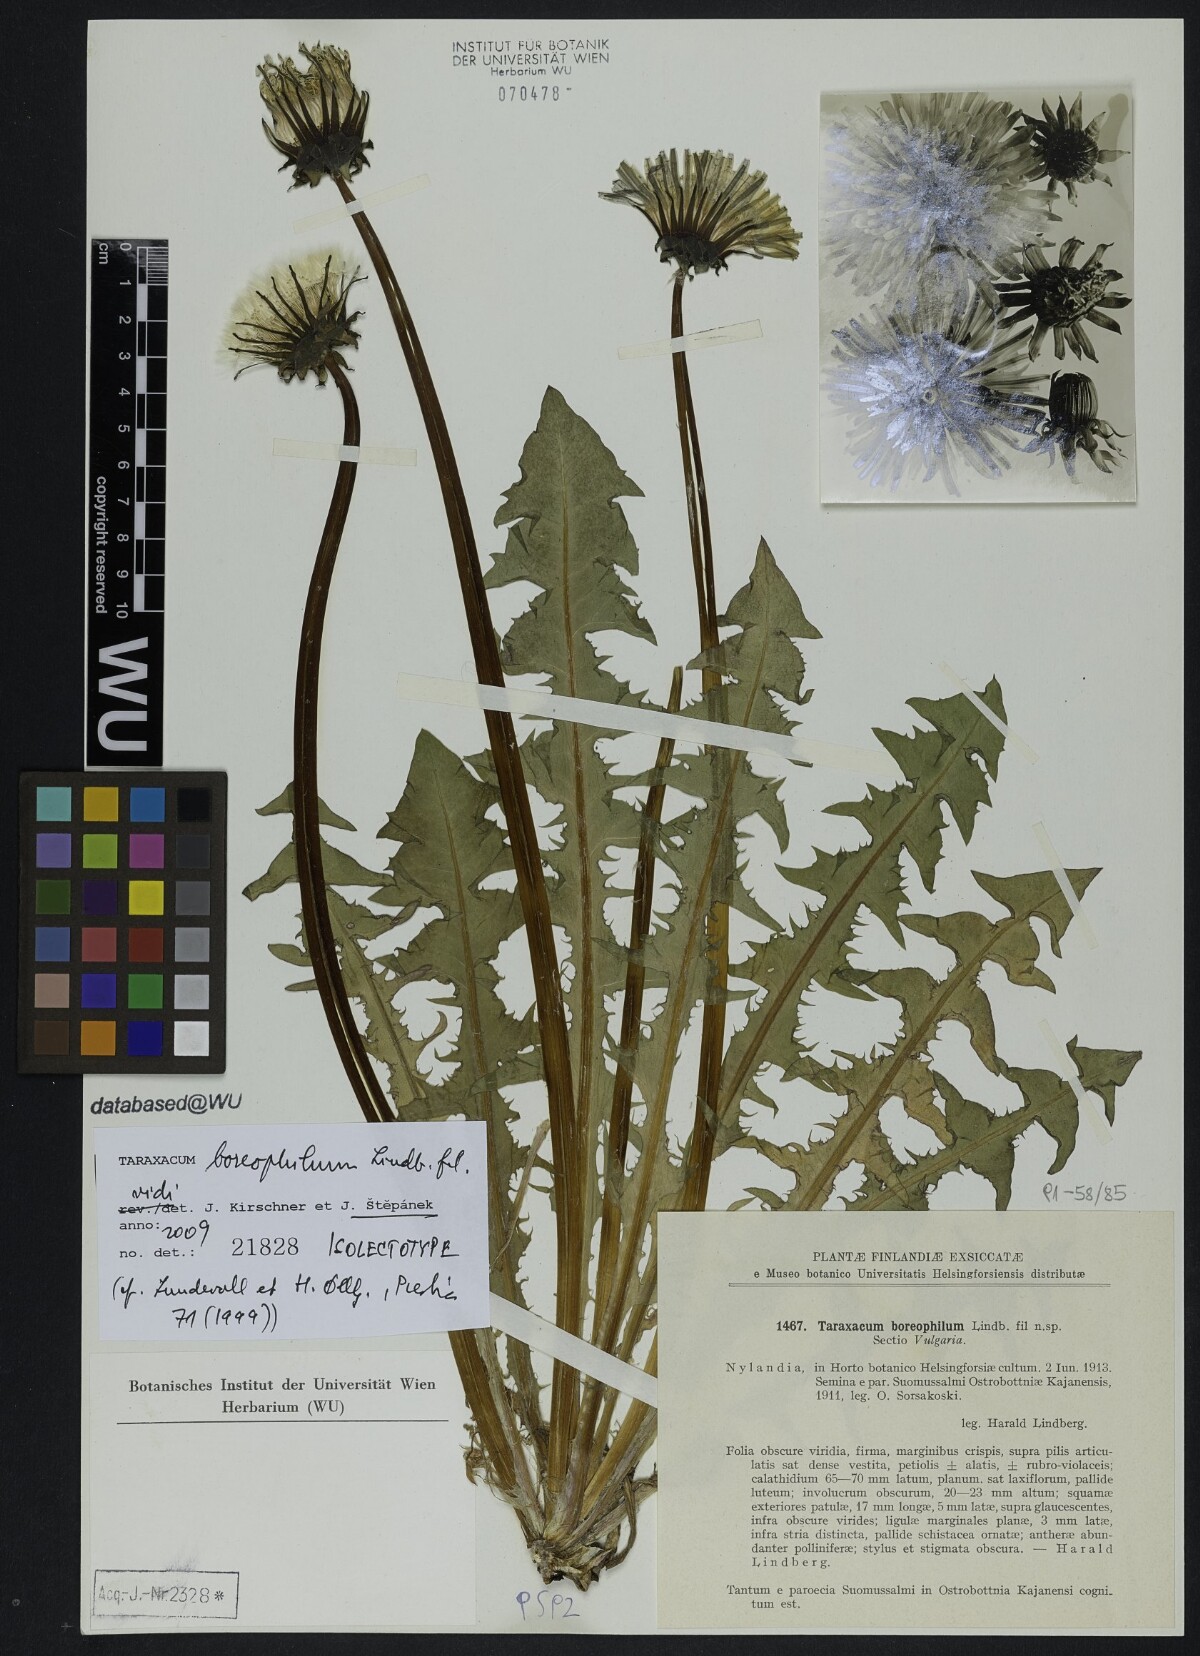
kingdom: Plantae
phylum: Tracheophyta
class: Magnoliopsida
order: Asterales
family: Asteraceae
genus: Taraxacum
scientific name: Taraxacum boreophilum
